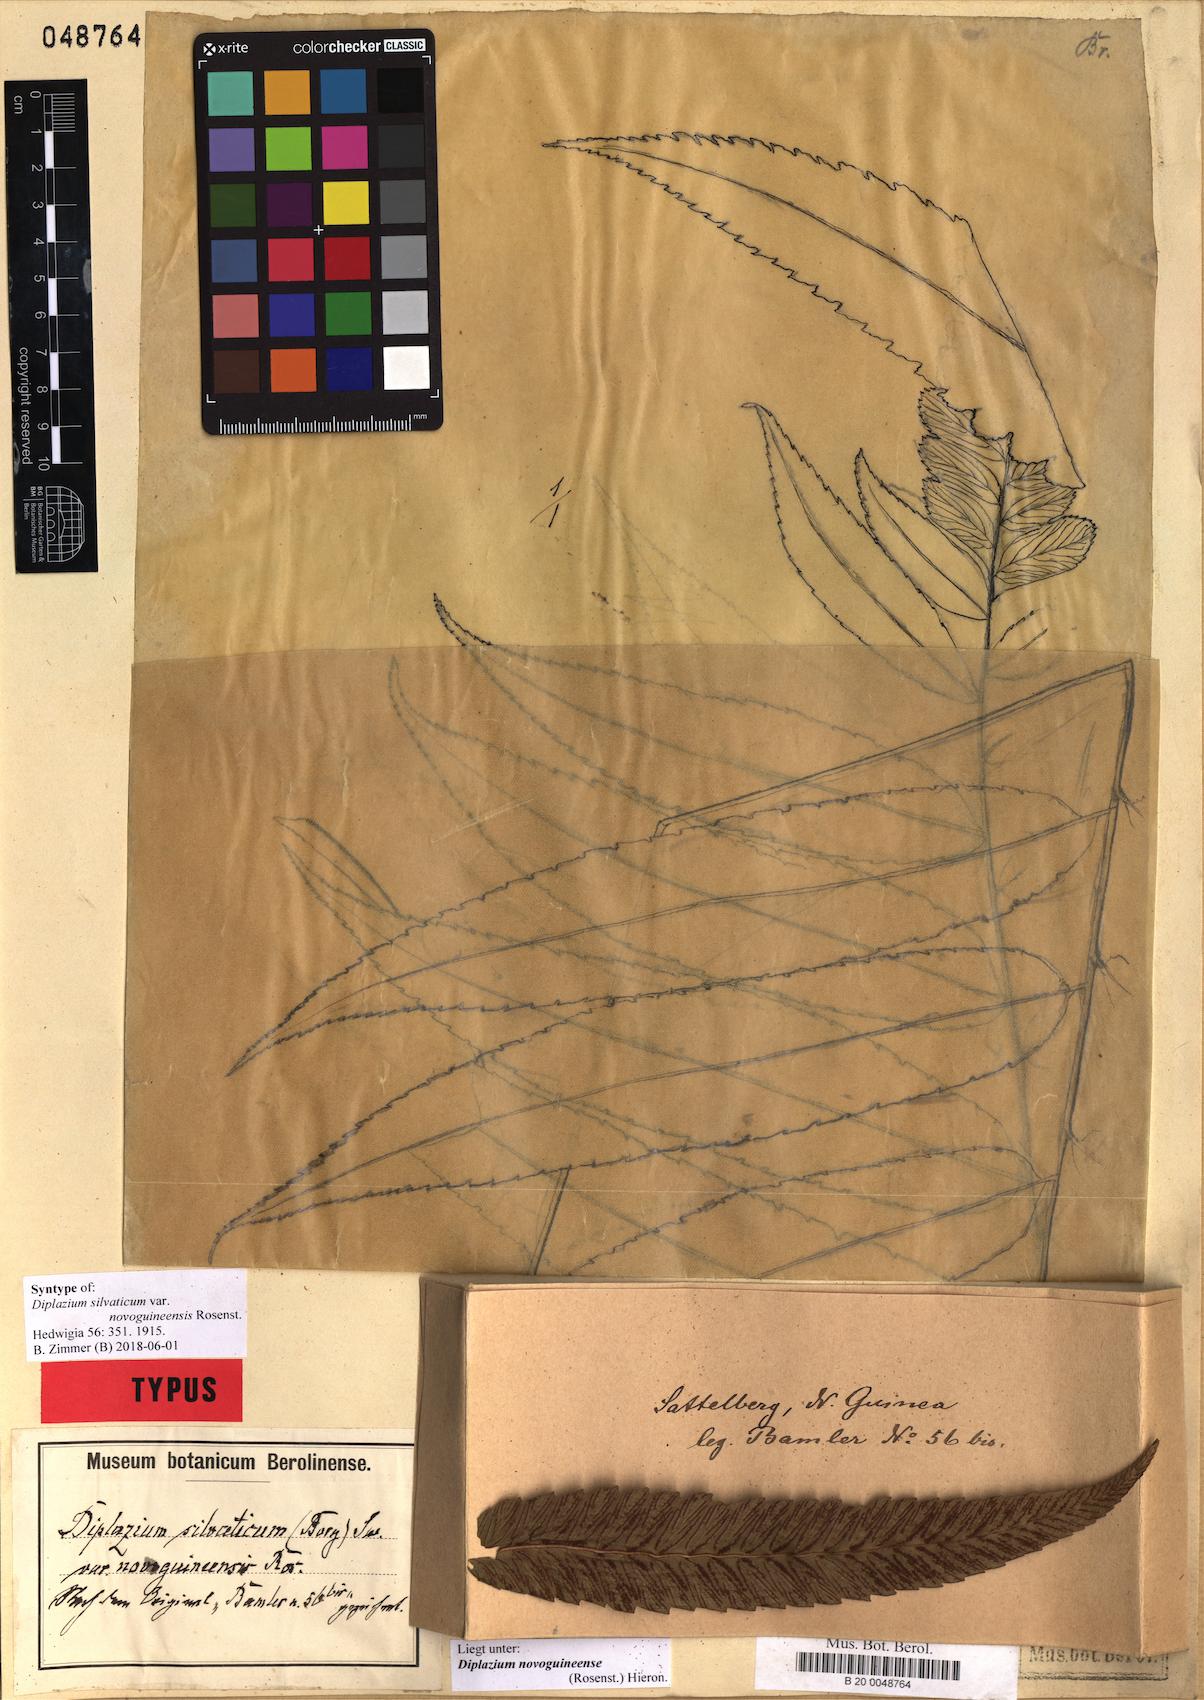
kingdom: Plantae
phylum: Tracheophyta
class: Polypodiopsida
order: Polypodiales
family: Athyriaceae
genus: Diplazium
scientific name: Diplazium novoguineense
